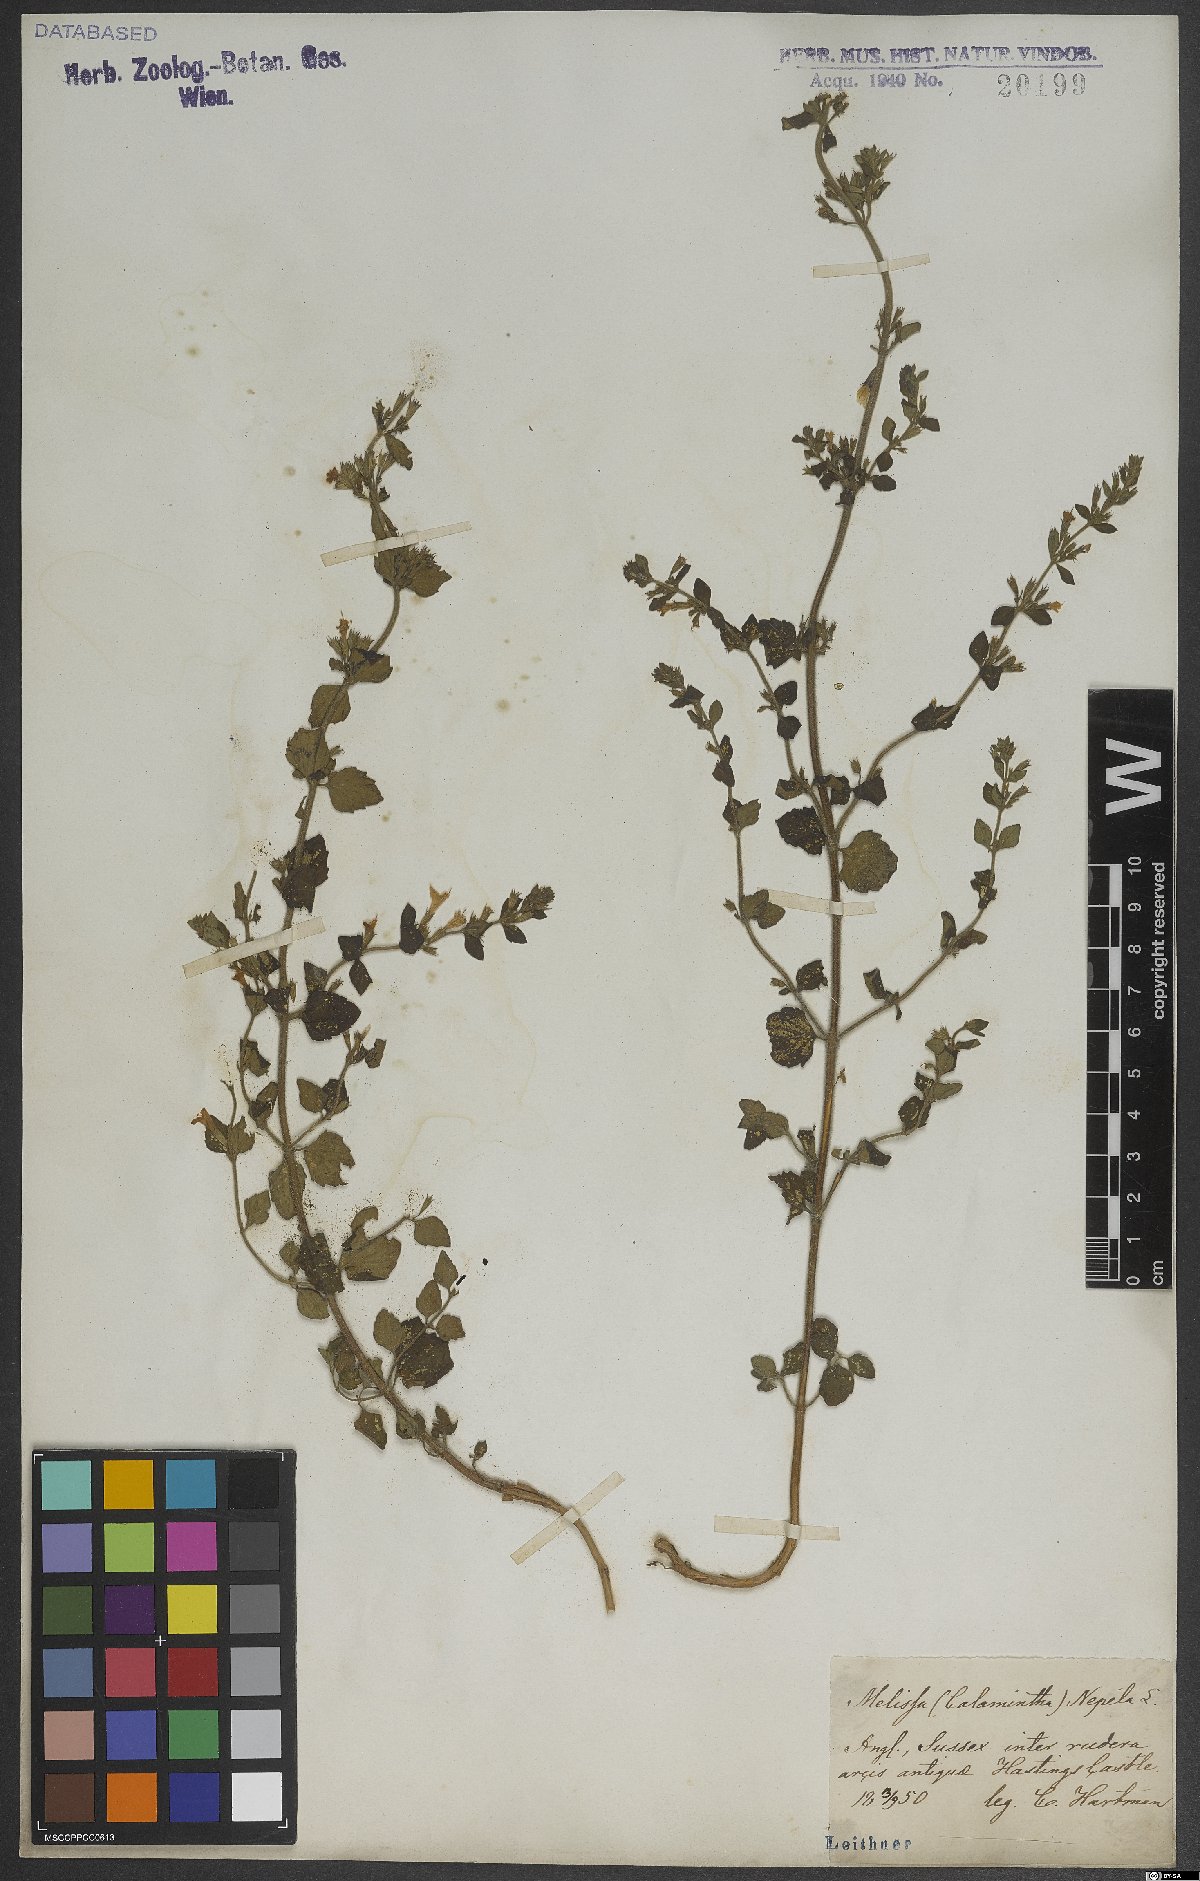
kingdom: Plantae
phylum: Tracheophyta
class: Magnoliopsida
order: Lamiales
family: Lamiaceae
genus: Clinopodium
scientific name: Clinopodium nepeta
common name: Lesser calamint
